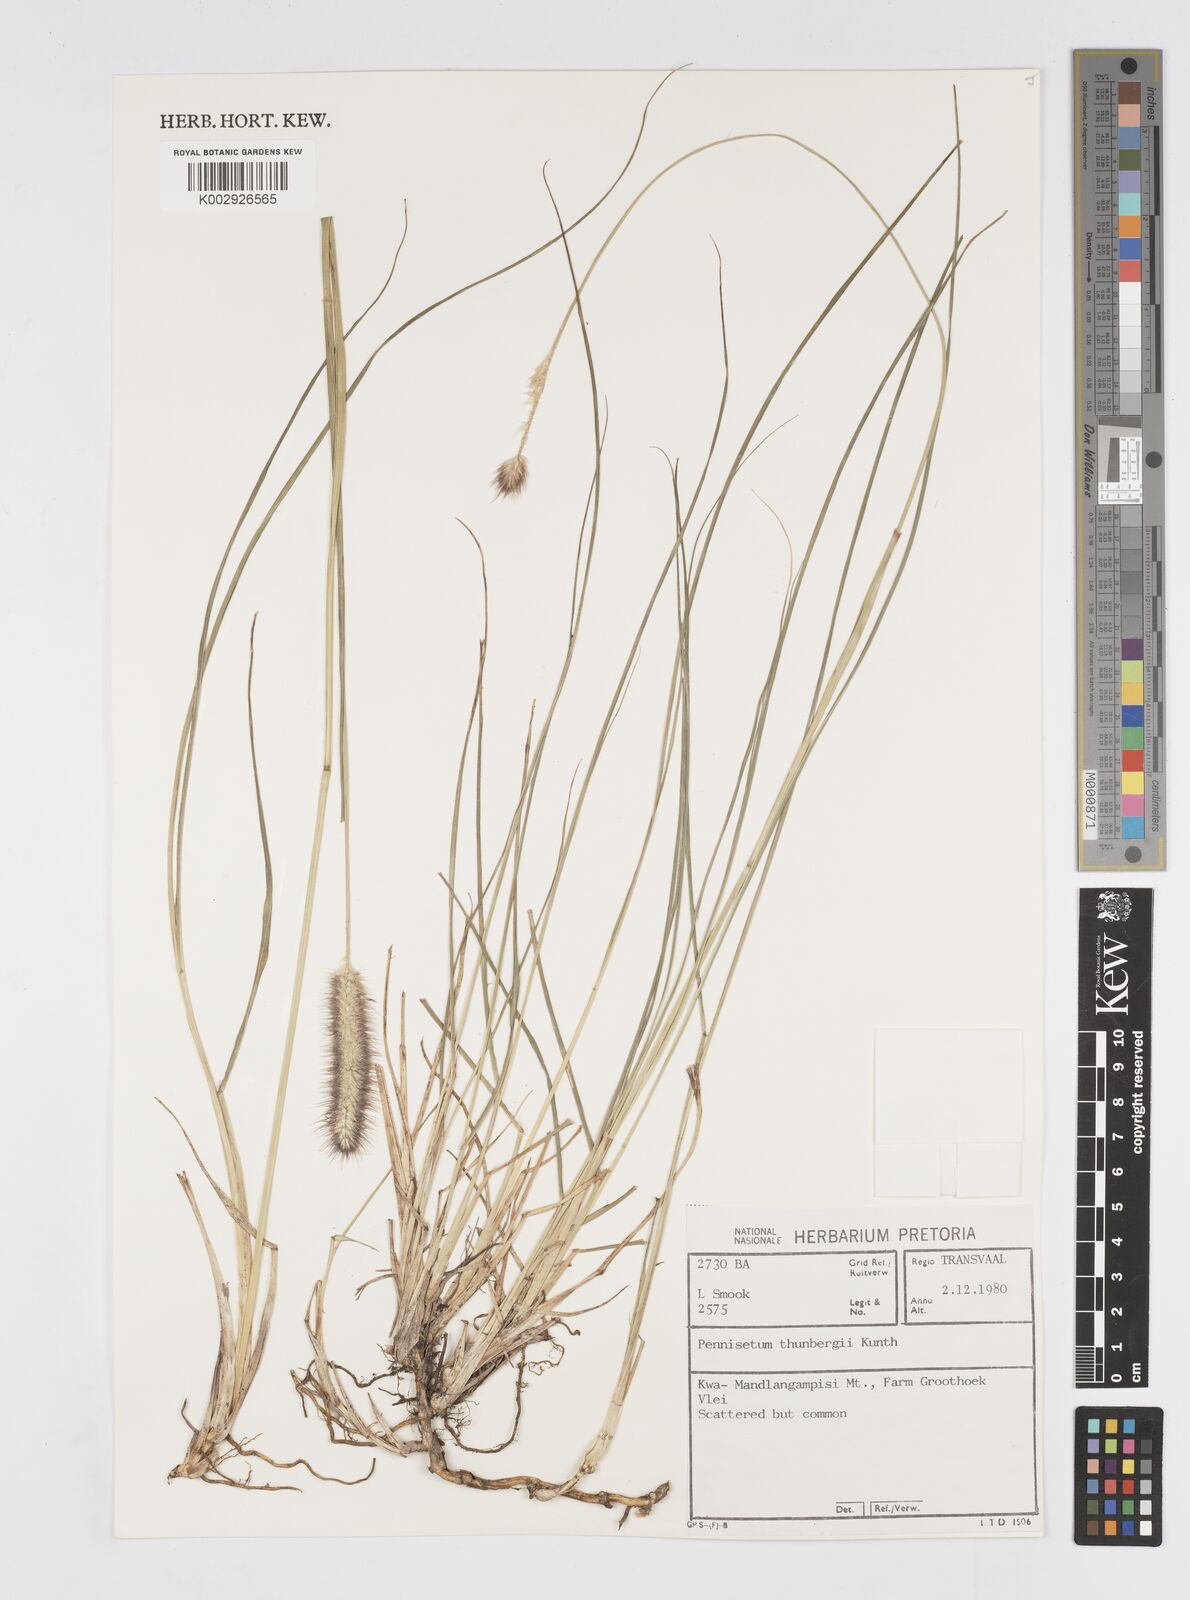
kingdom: Plantae
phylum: Tracheophyta
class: Liliopsida
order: Poales
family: Poaceae
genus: Cenchrus
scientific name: Cenchrus geniculatus
